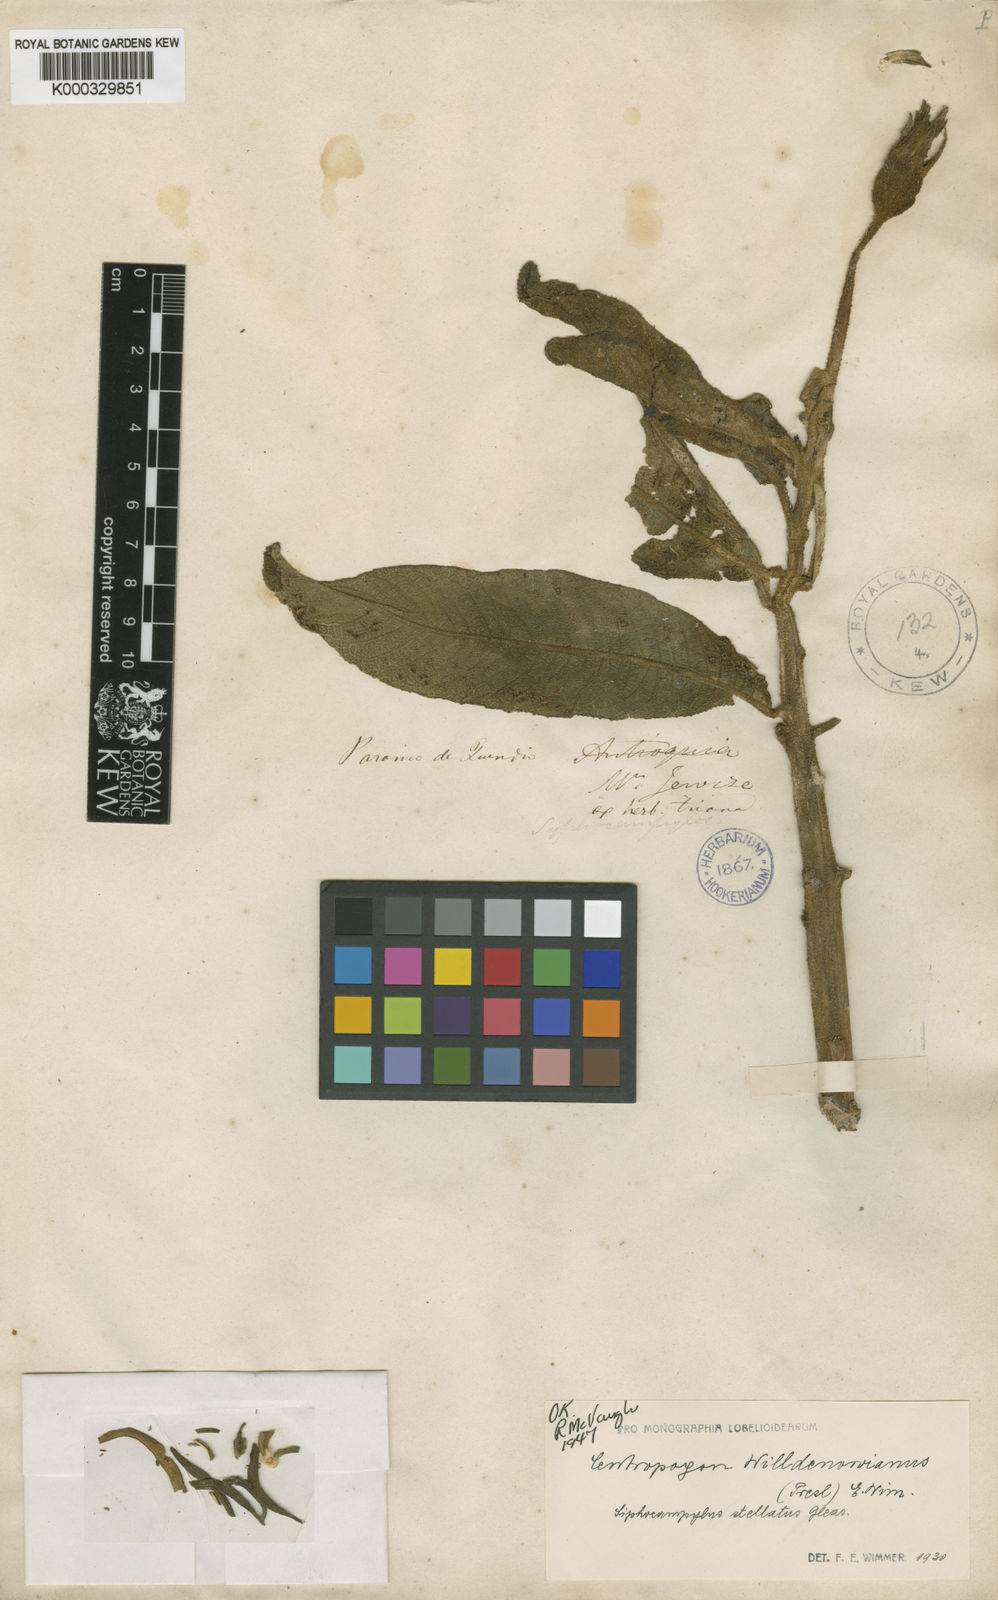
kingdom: Plantae
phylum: Tracheophyta
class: Magnoliopsida
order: Asterales
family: Campanulaceae
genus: Centropogon
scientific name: Centropogon ayavacensis
